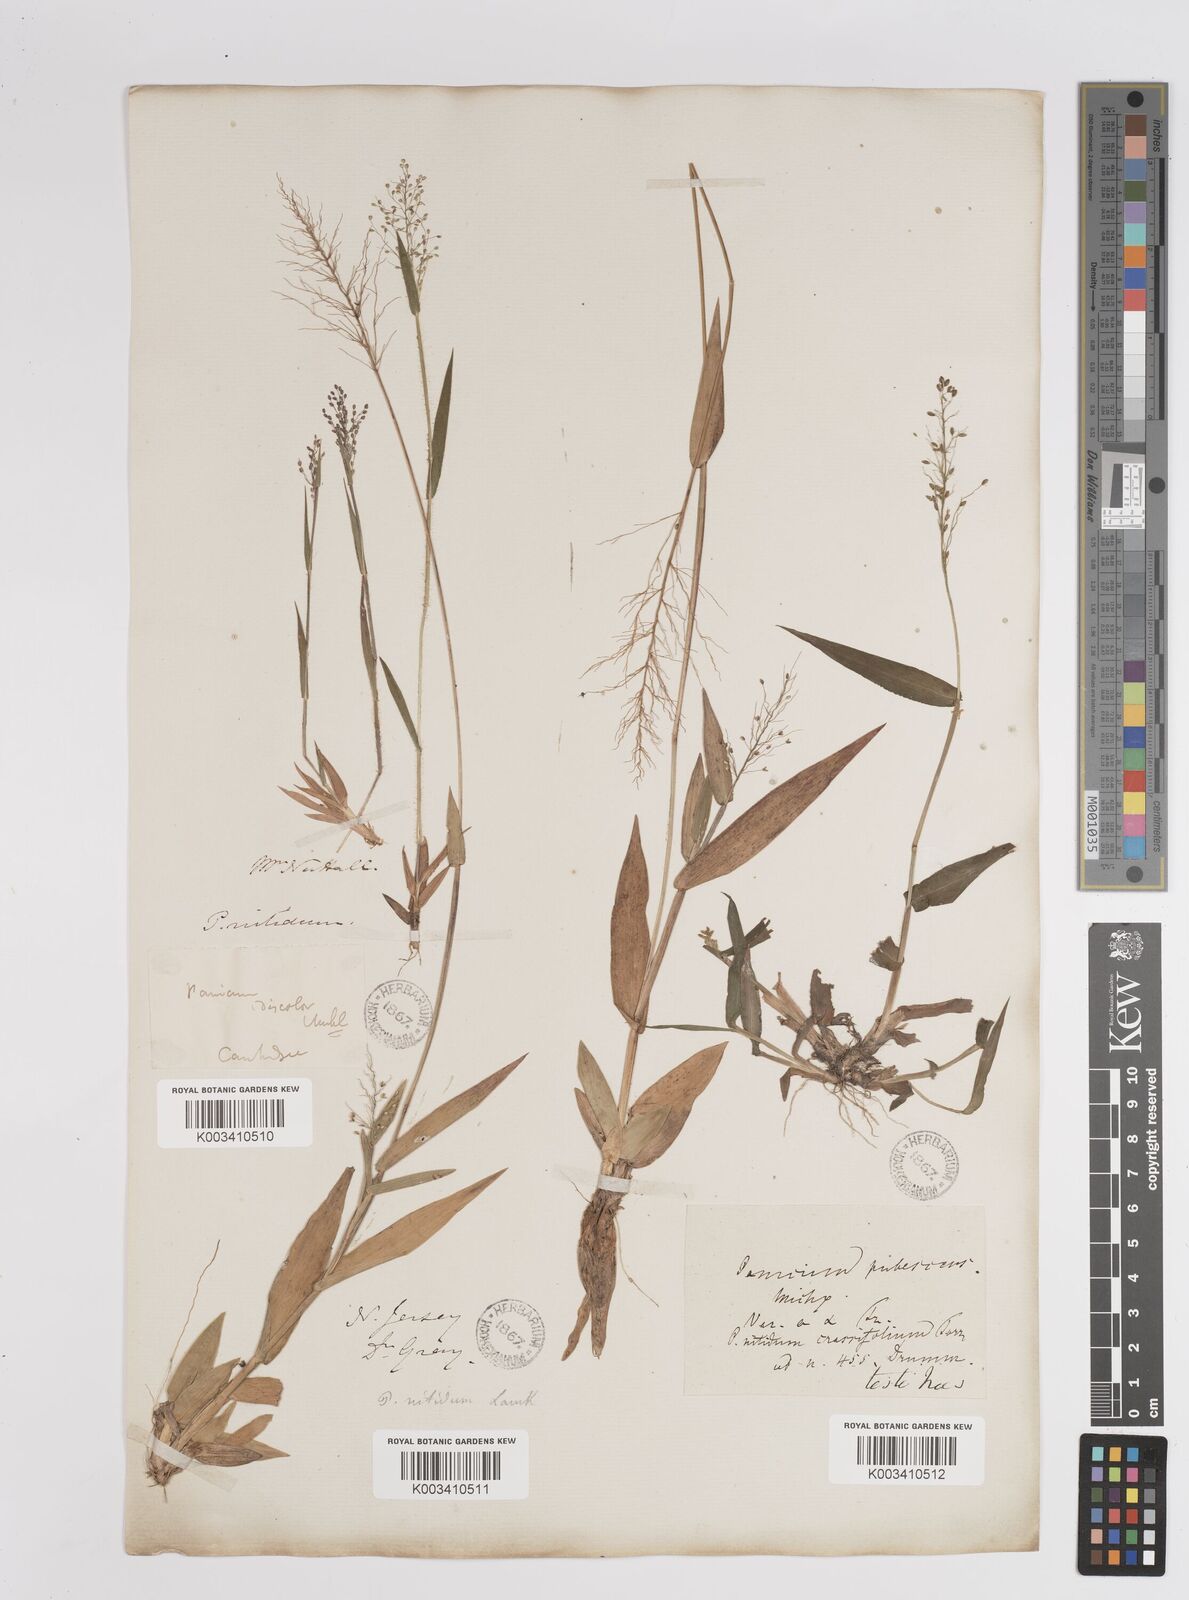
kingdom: Plantae
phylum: Tracheophyta
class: Liliopsida
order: Poales
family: Poaceae
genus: Dichanthelium
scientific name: Dichanthelium polyanthes
